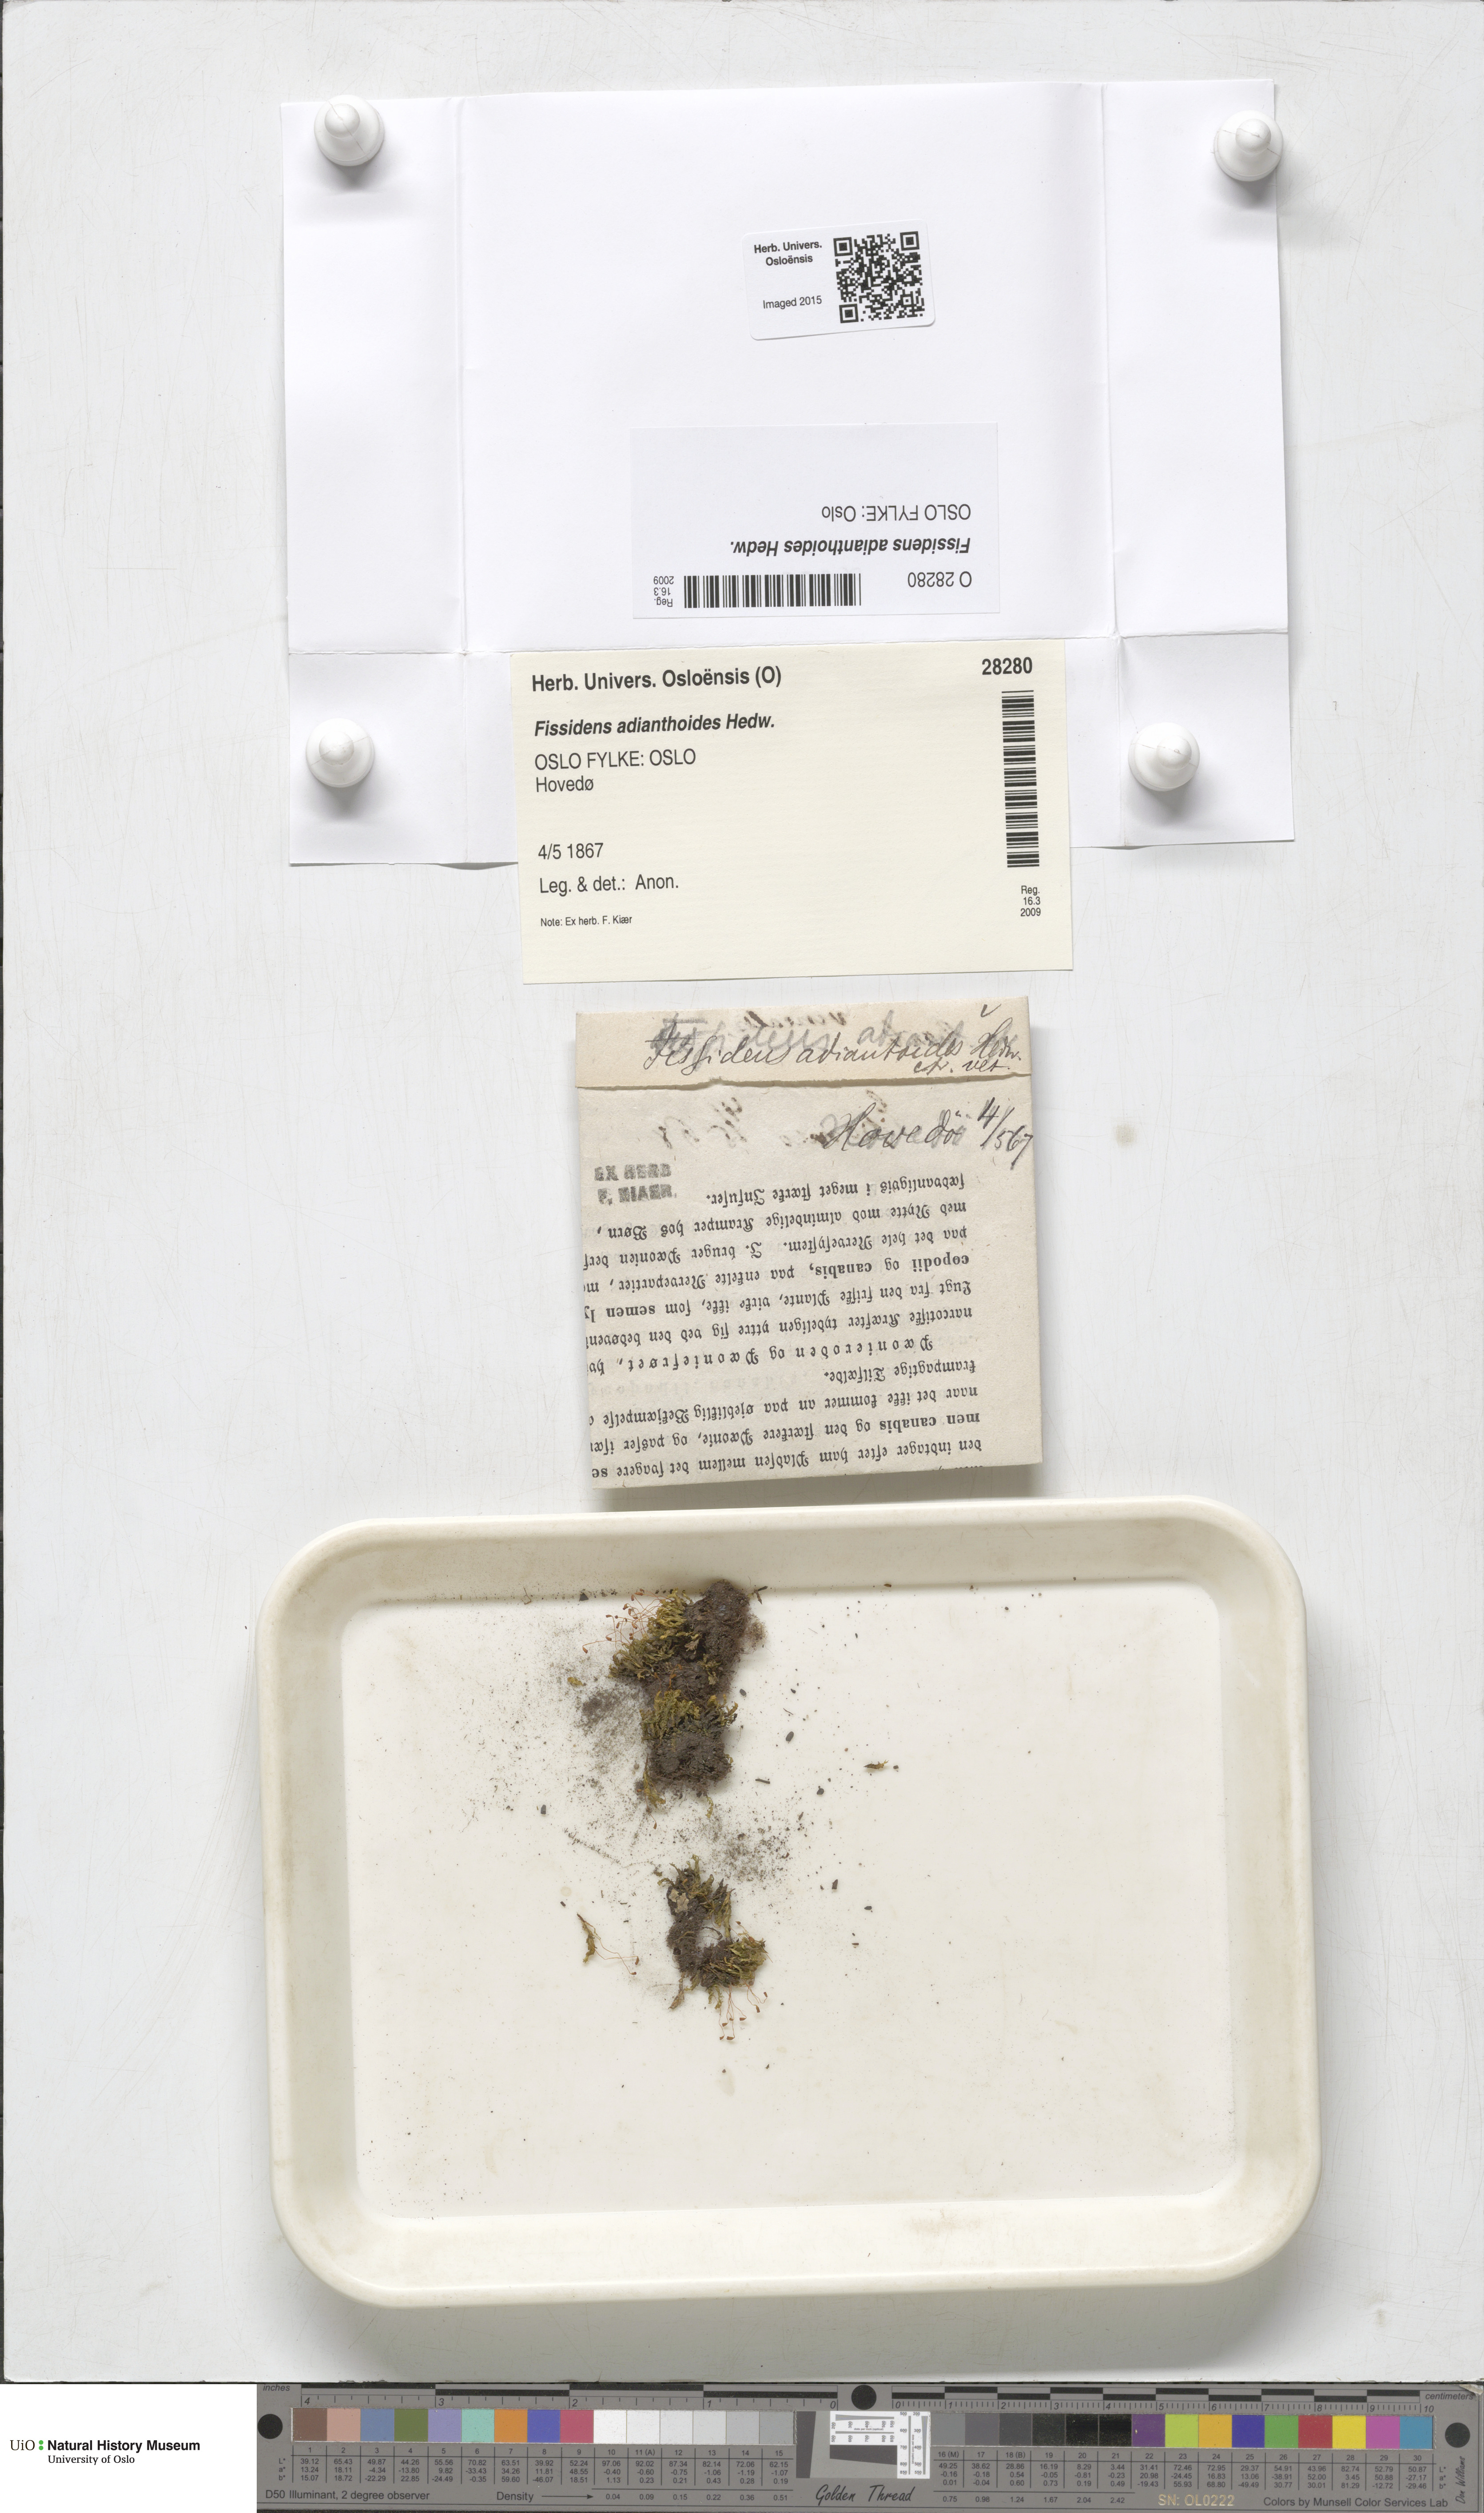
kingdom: Plantae
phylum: Bryophyta
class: Bryopsida
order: Dicranales
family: Fissidentaceae
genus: Fissidens
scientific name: Fissidens adianthoides
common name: Maidenhair pocket moss
